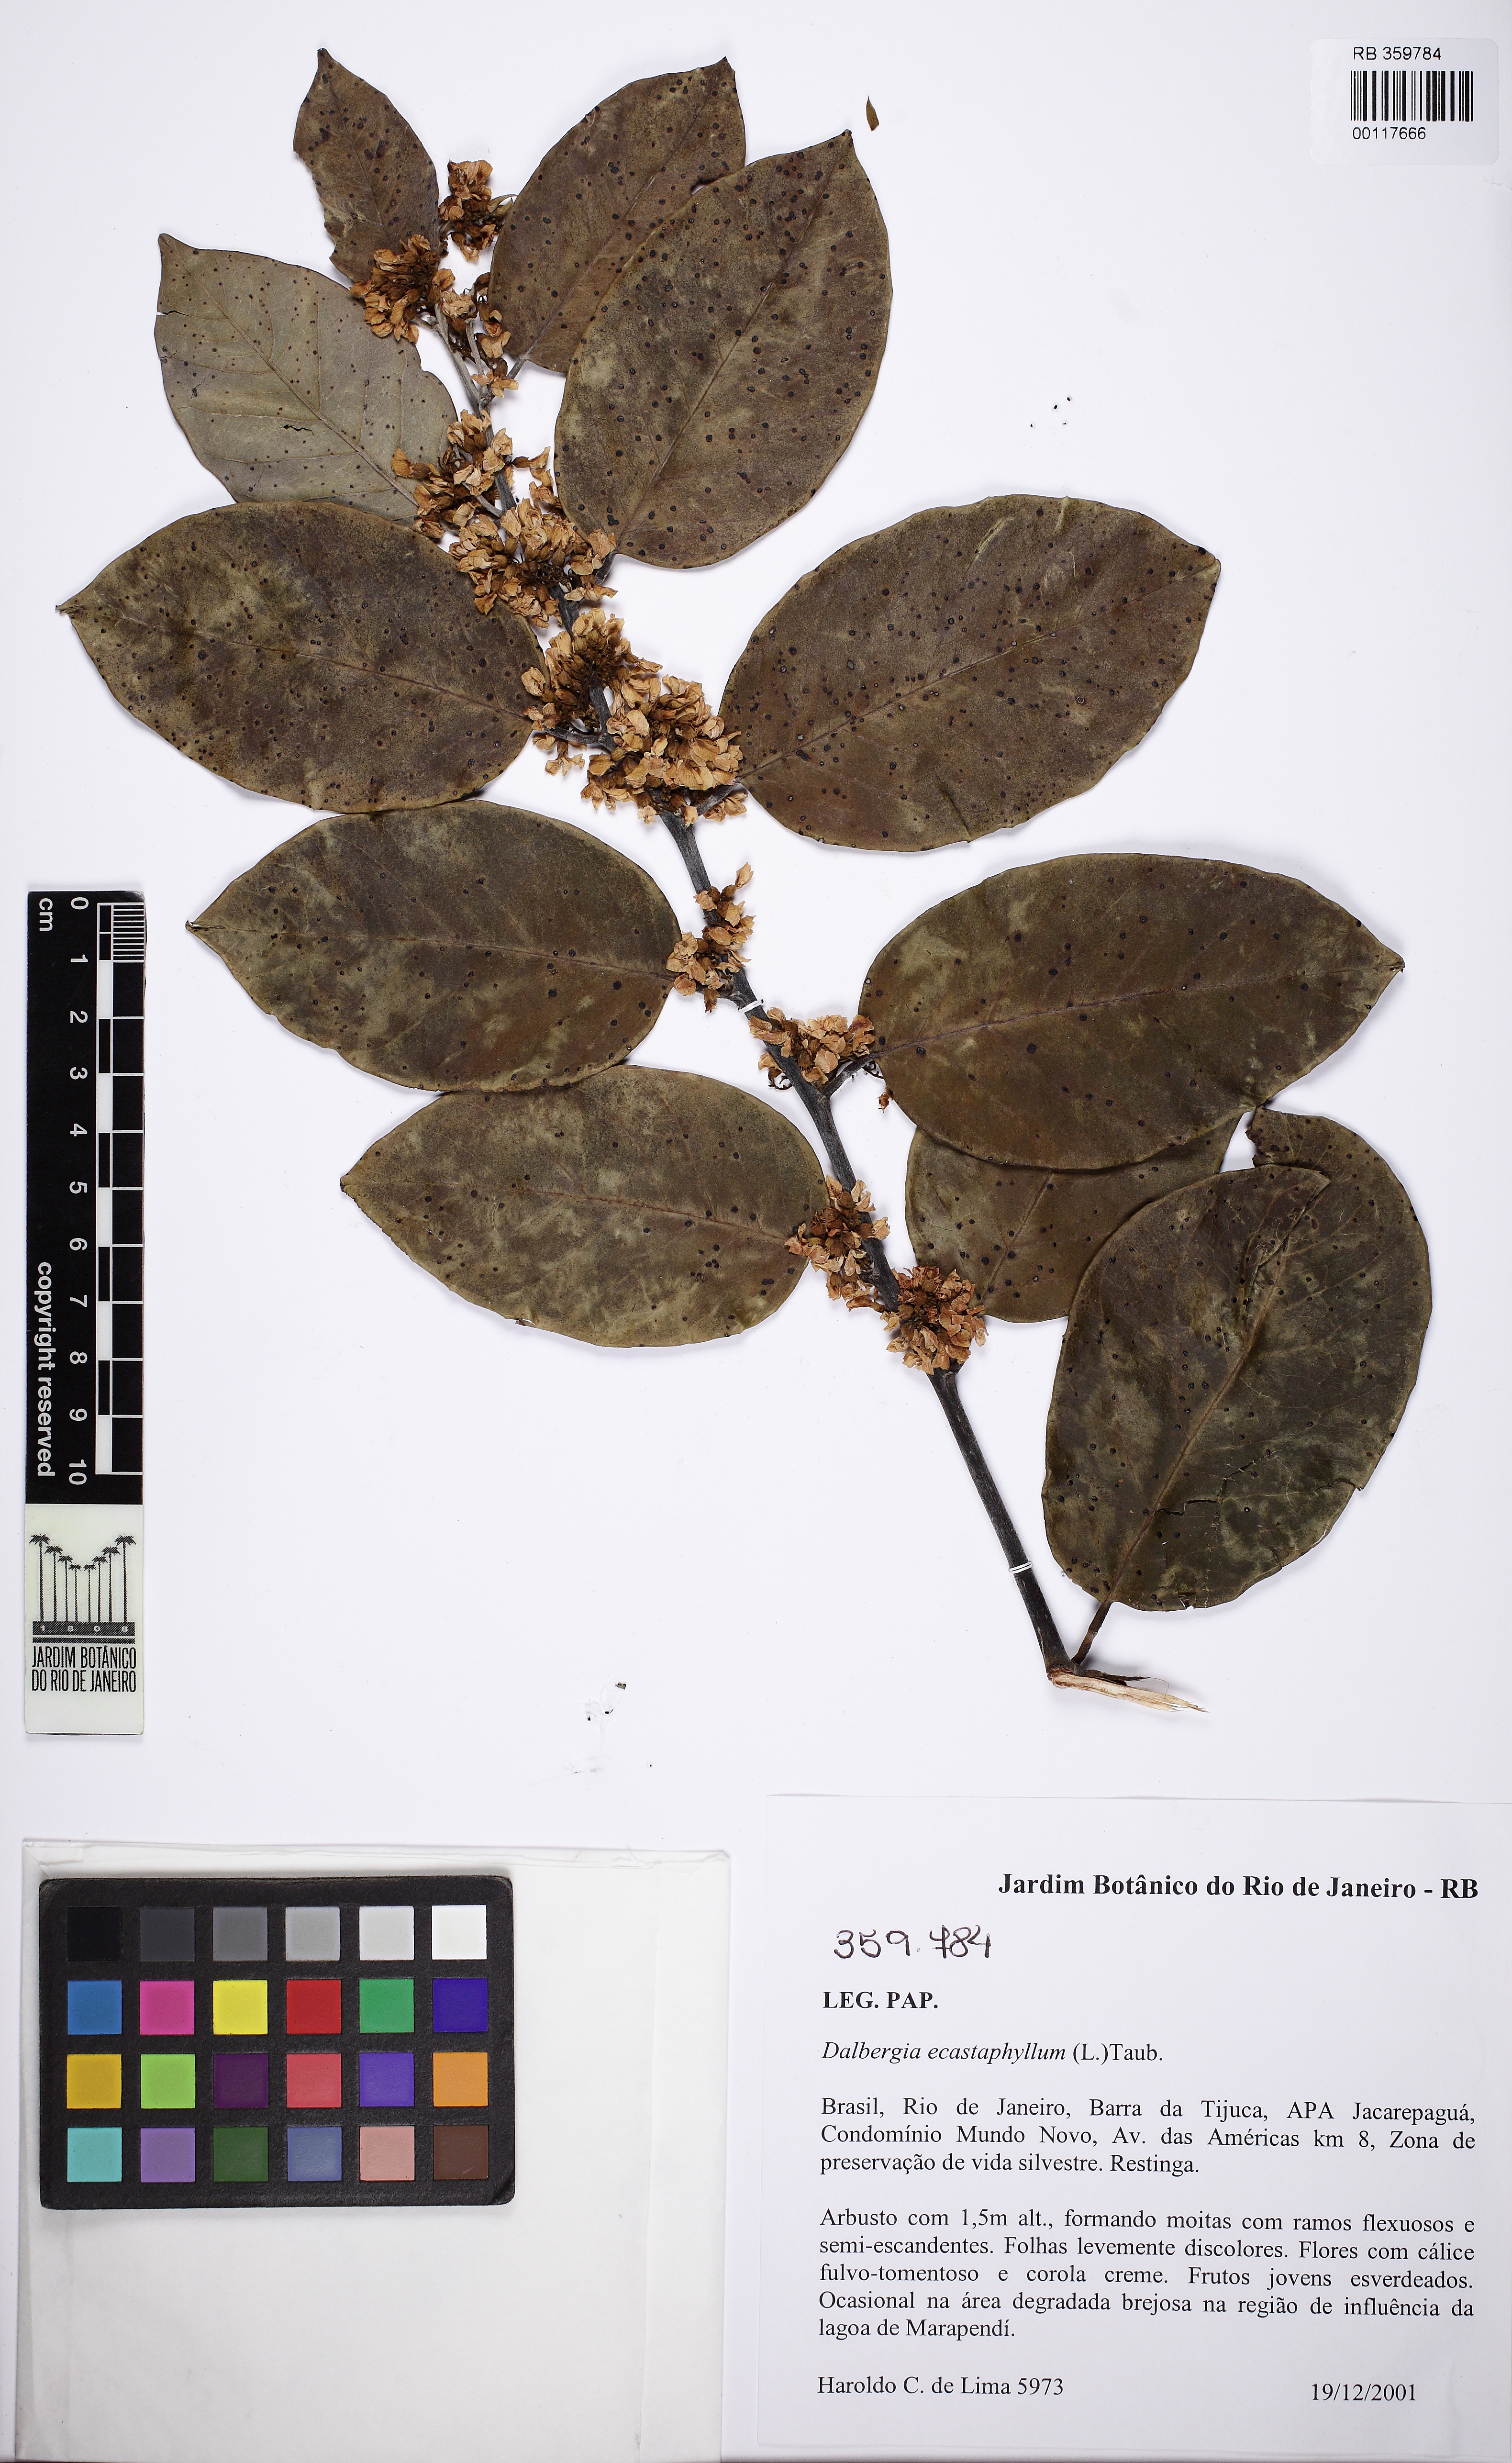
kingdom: Plantae
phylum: Tracheophyta
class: Magnoliopsida
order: Fabales
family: Fabaceae
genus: Dalbergia
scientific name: Dalbergia ecastaphyllum
